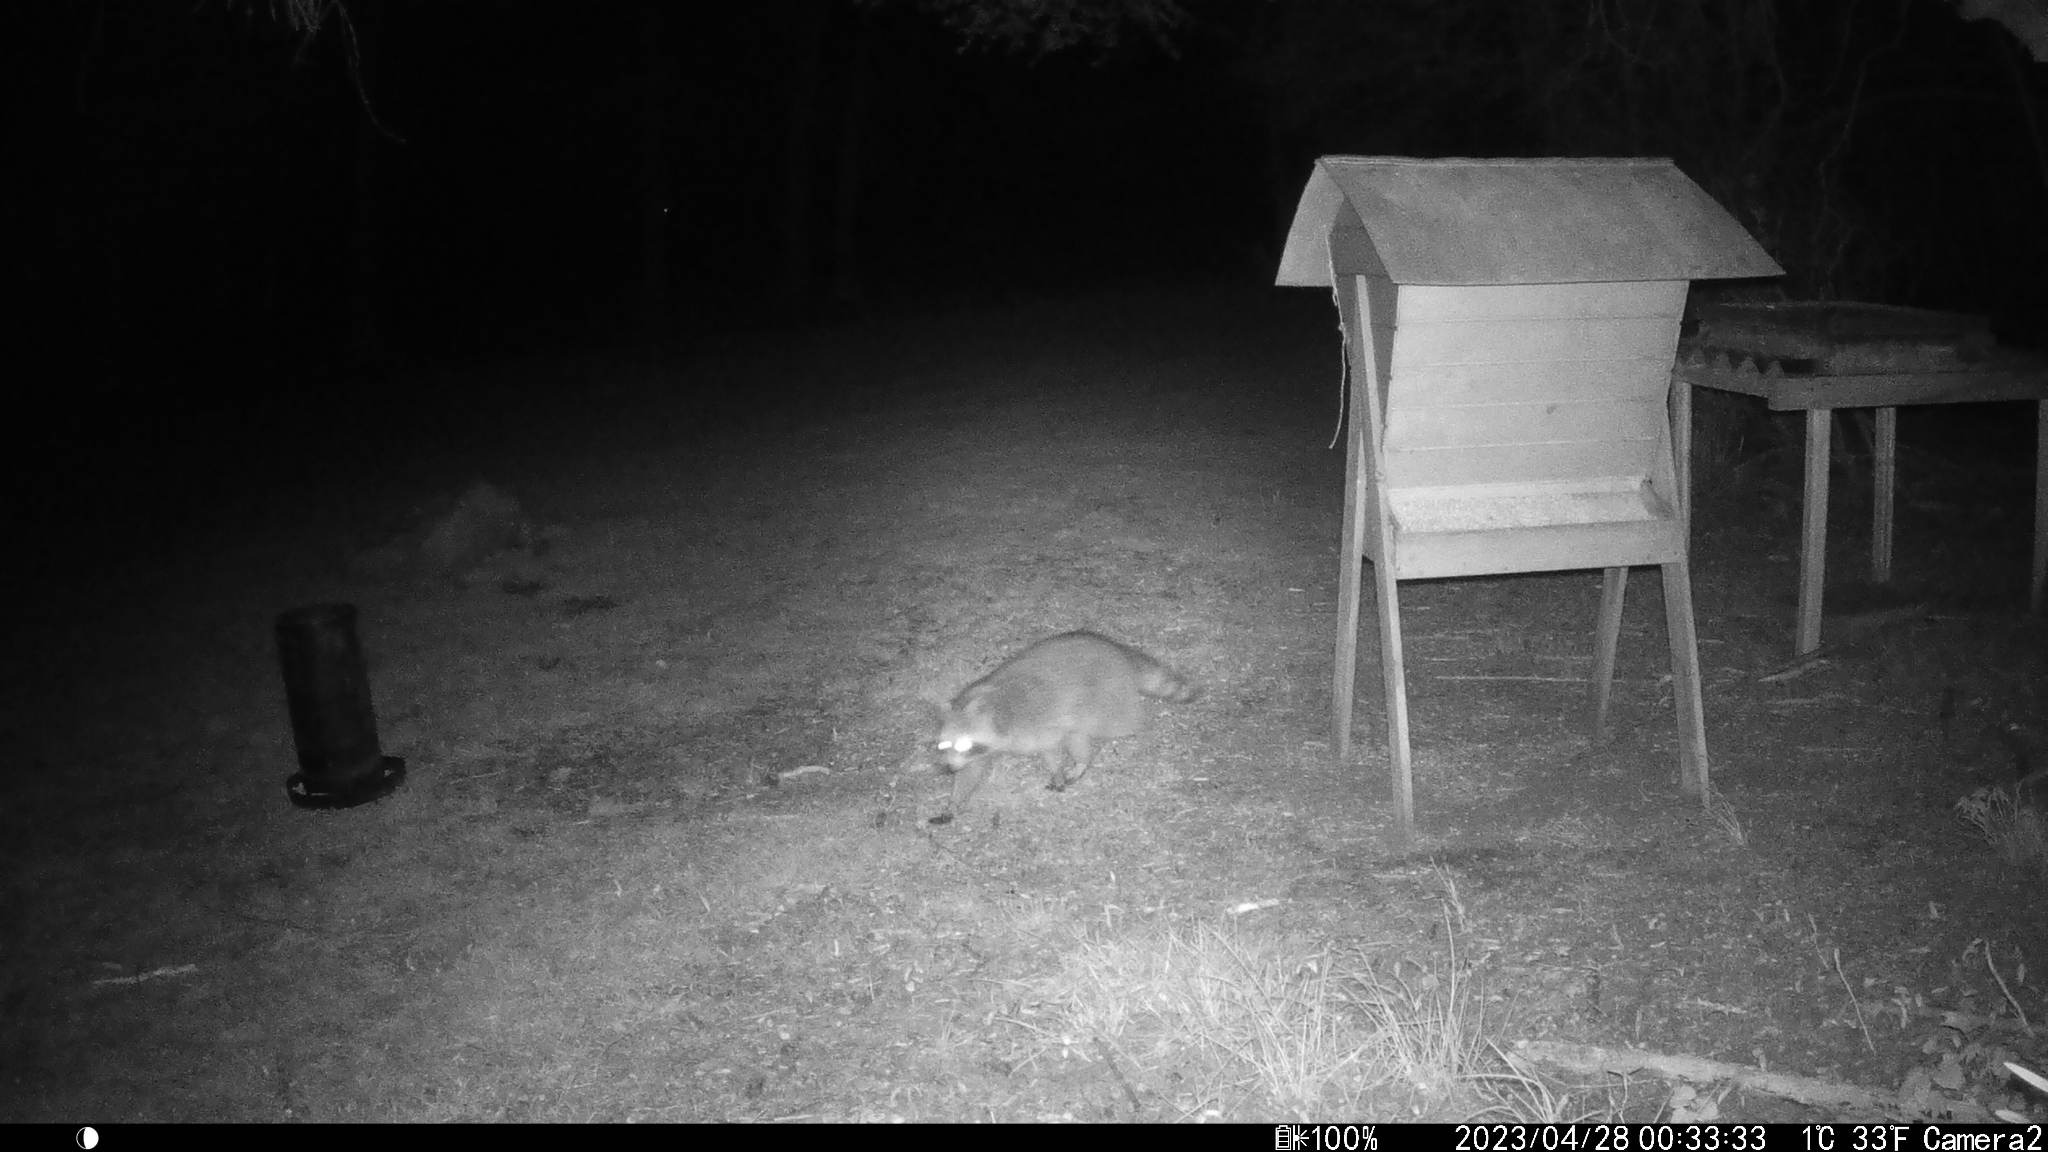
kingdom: Animalia
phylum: Chordata
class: Mammalia
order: Carnivora
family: Procyonidae
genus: Procyon
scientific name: Procyon lotor
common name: Vaskebjørn
